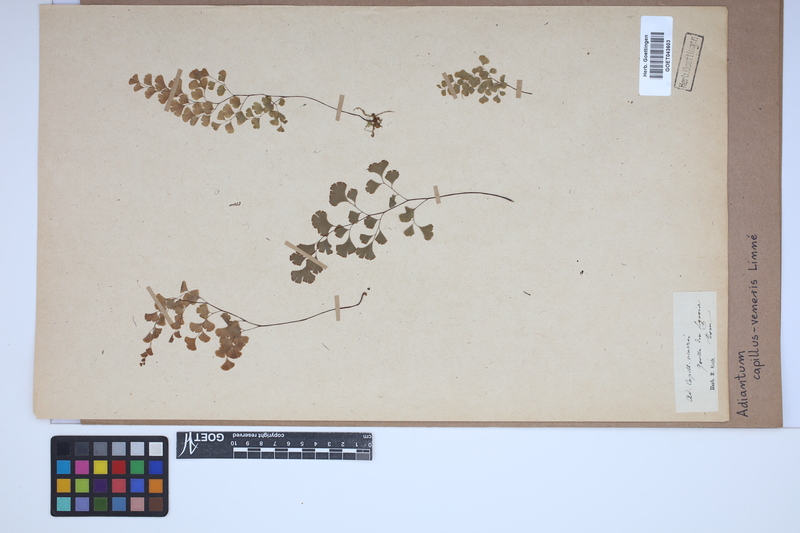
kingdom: Plantae
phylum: Tracheophyta
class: Polypodiopsida
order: Polypodiales
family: Pteridaceae
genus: Adiantum
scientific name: Adiantum capillus-veneris
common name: Maidenhair fern
